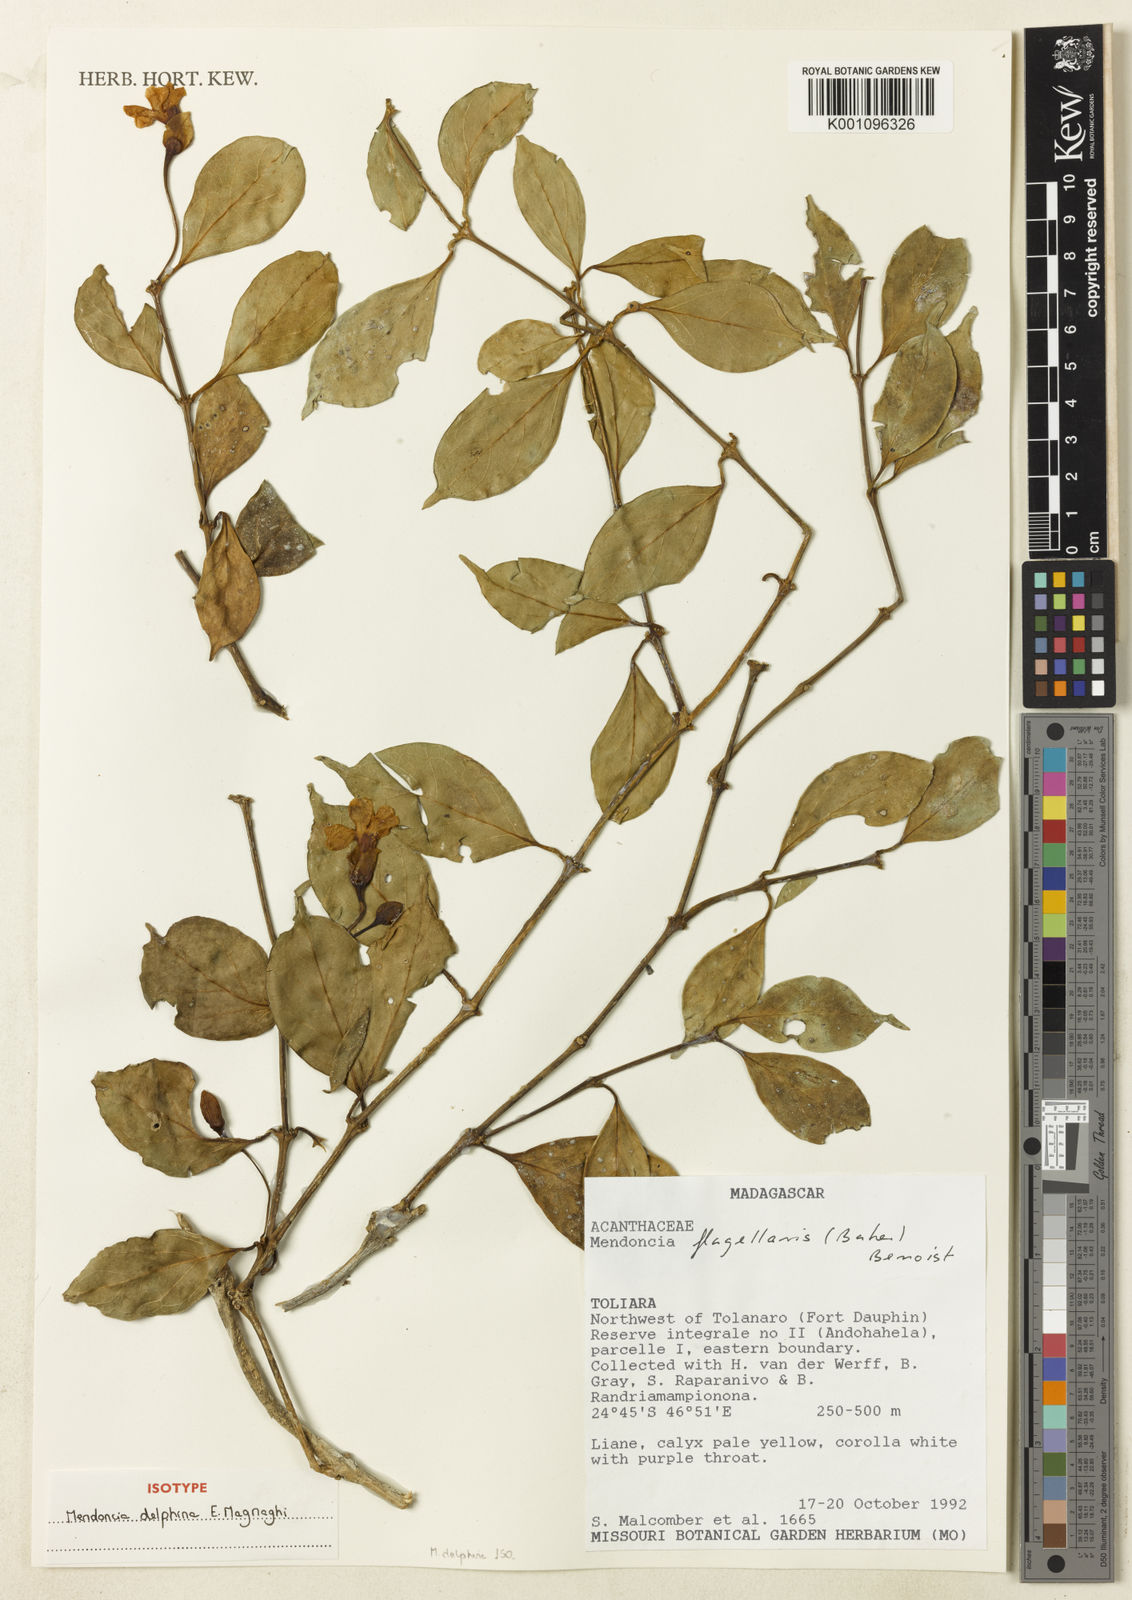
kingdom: Plantae
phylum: Tracheophyta
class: Magnoliopsida
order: Lamiales
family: Acanthaceae
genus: Mendoncia
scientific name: Mendoncia delphina
